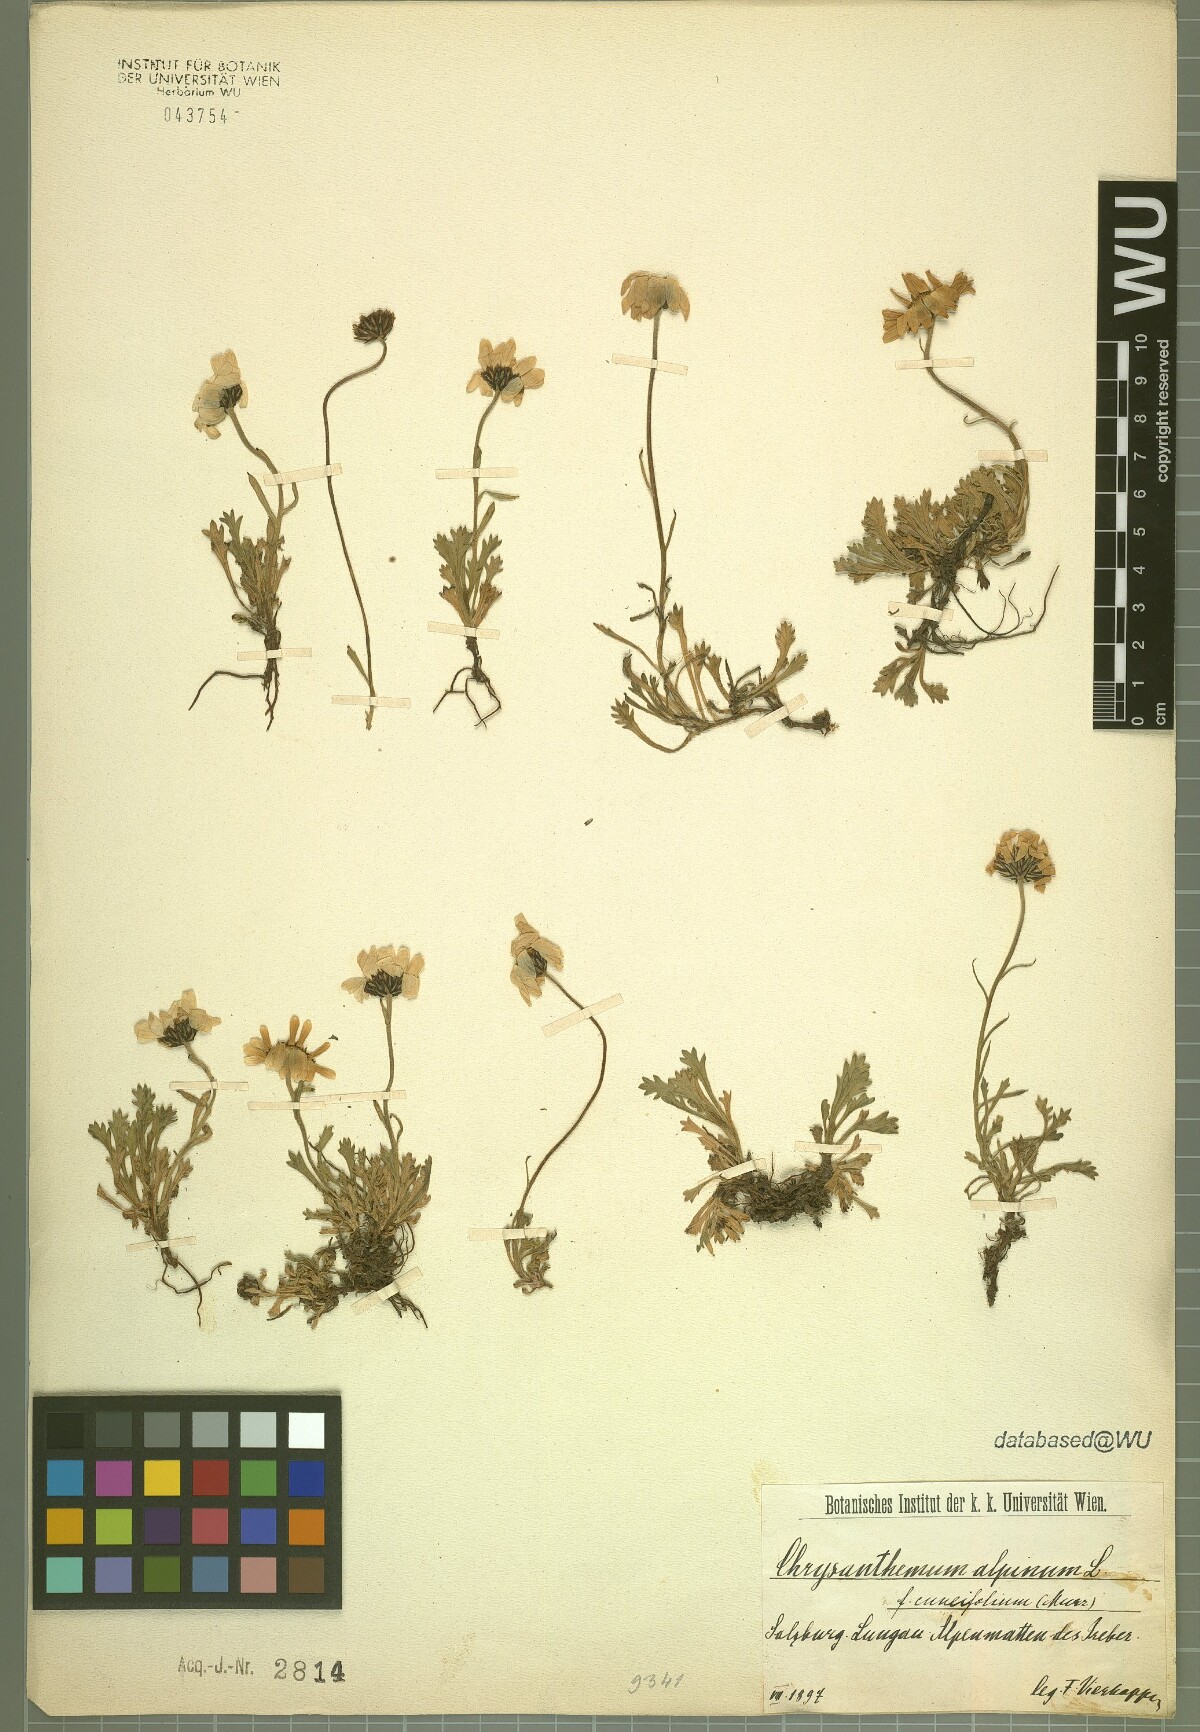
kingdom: Plantae
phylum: Tracheophyta
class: Magnoliopsida
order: Asterales
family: Asteraceae
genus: Leucanthemopsis
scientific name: Leucanthemopsis alpina
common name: Alpine moon daisy
